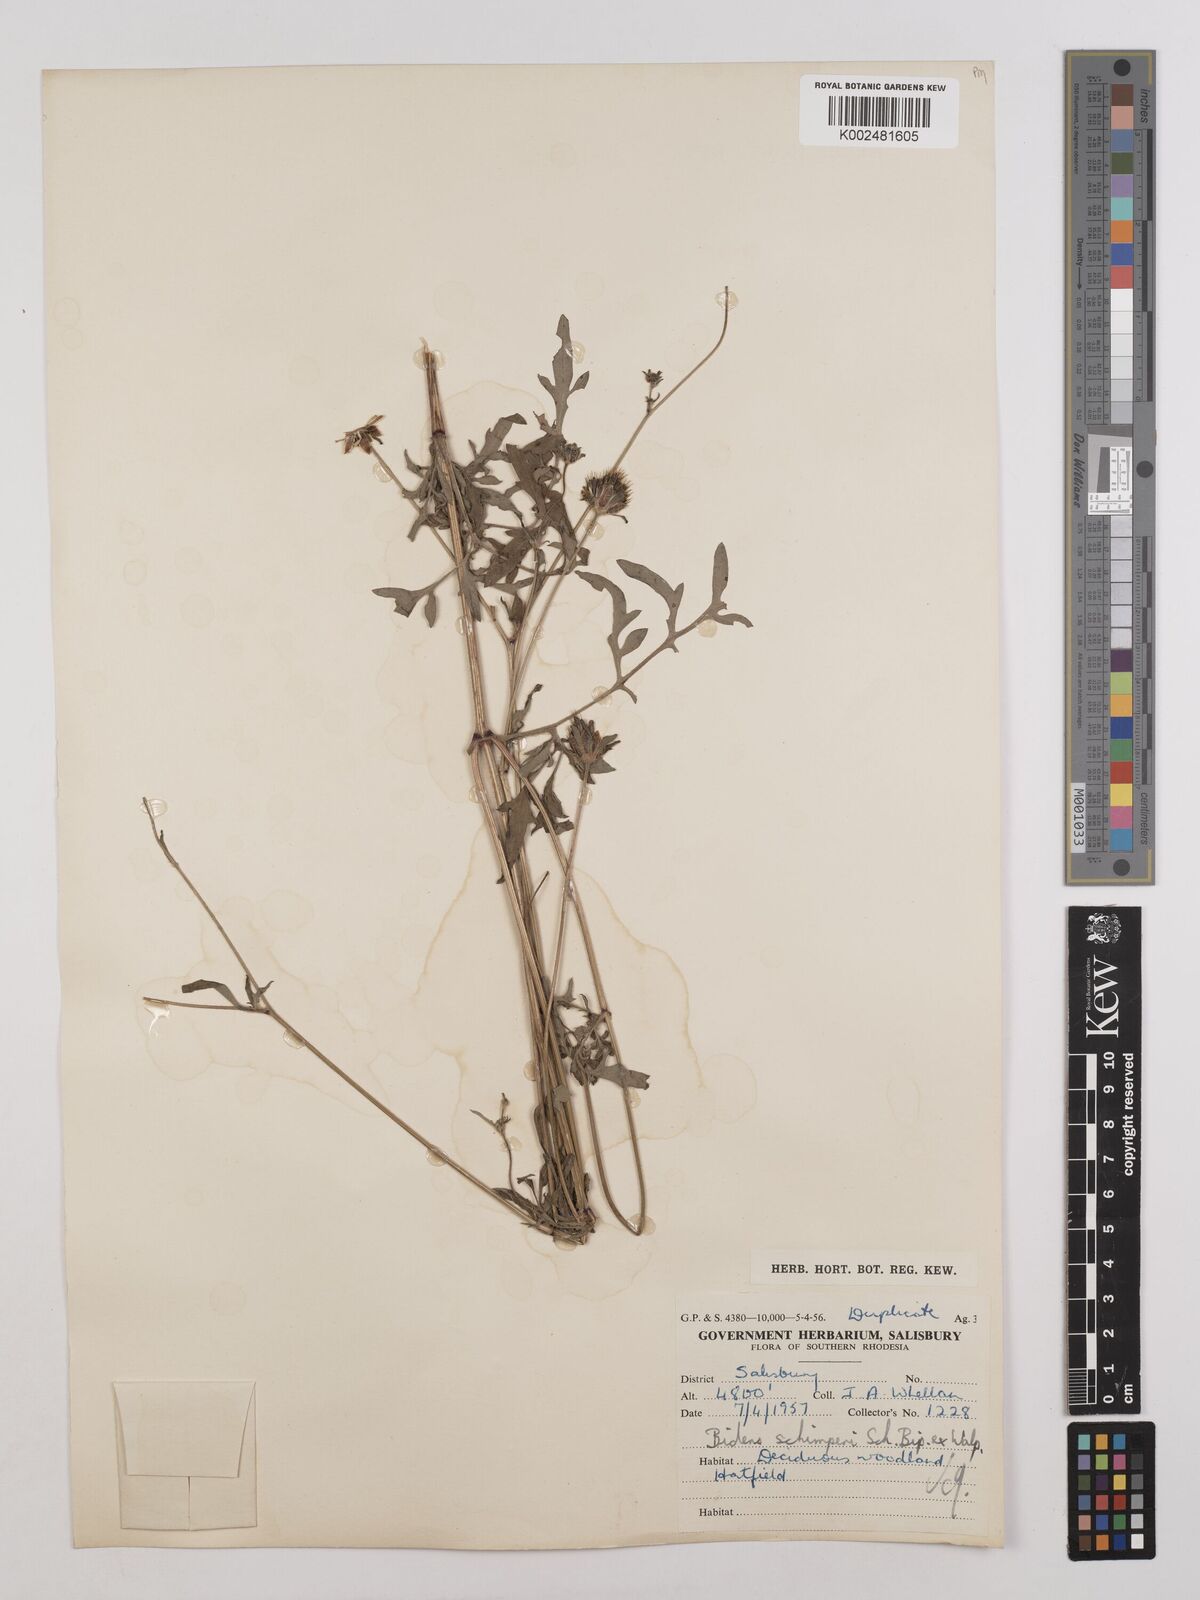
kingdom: Plantae
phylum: Tracheophyta
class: Magnoliopsida
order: Asterales
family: Asteraceae
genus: Bidens
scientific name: Bidens schimperi
